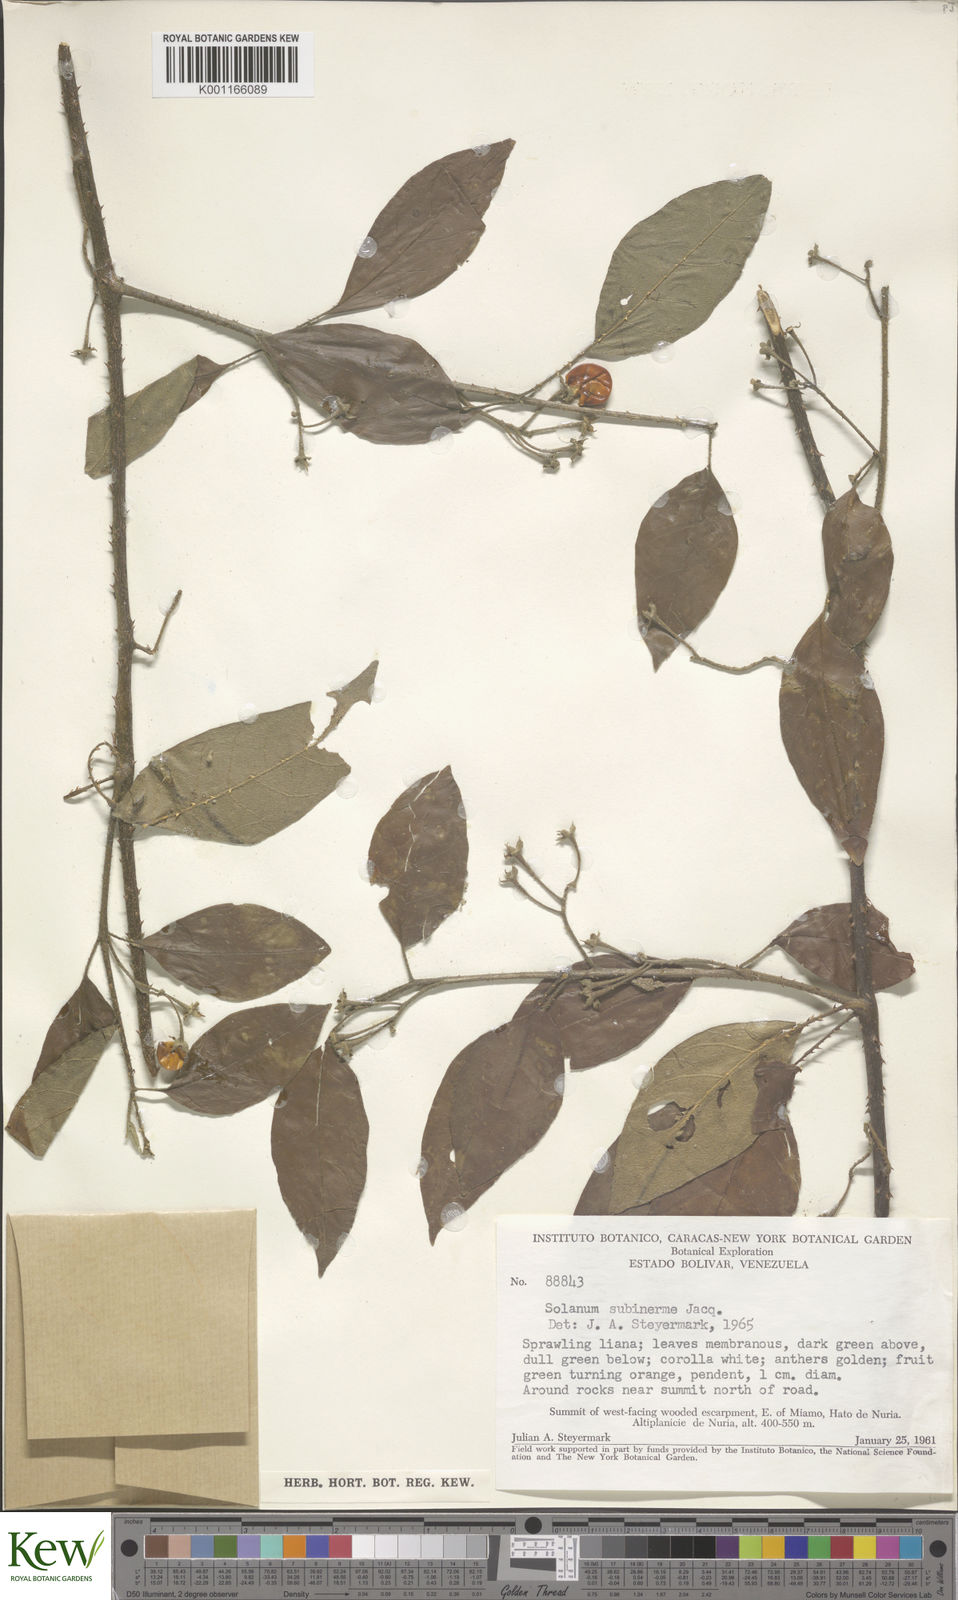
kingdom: Plantae
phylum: Tracheophyta
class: Magnoliopsida
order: Solanales
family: Solanaceae
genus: Solanum
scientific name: Solanum subinerme
